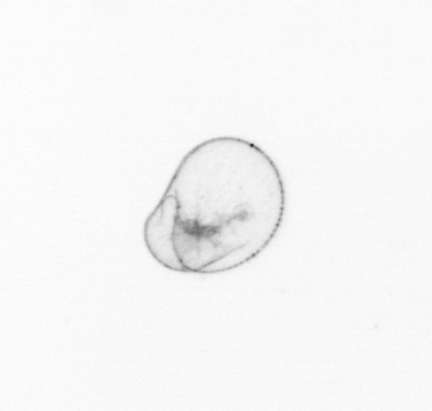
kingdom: Chromista
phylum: Myzozoa
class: Dinophyceae
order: Noctilucales
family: Noctilucaceae
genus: Noctiluca
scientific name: Noctiluca scintillans
